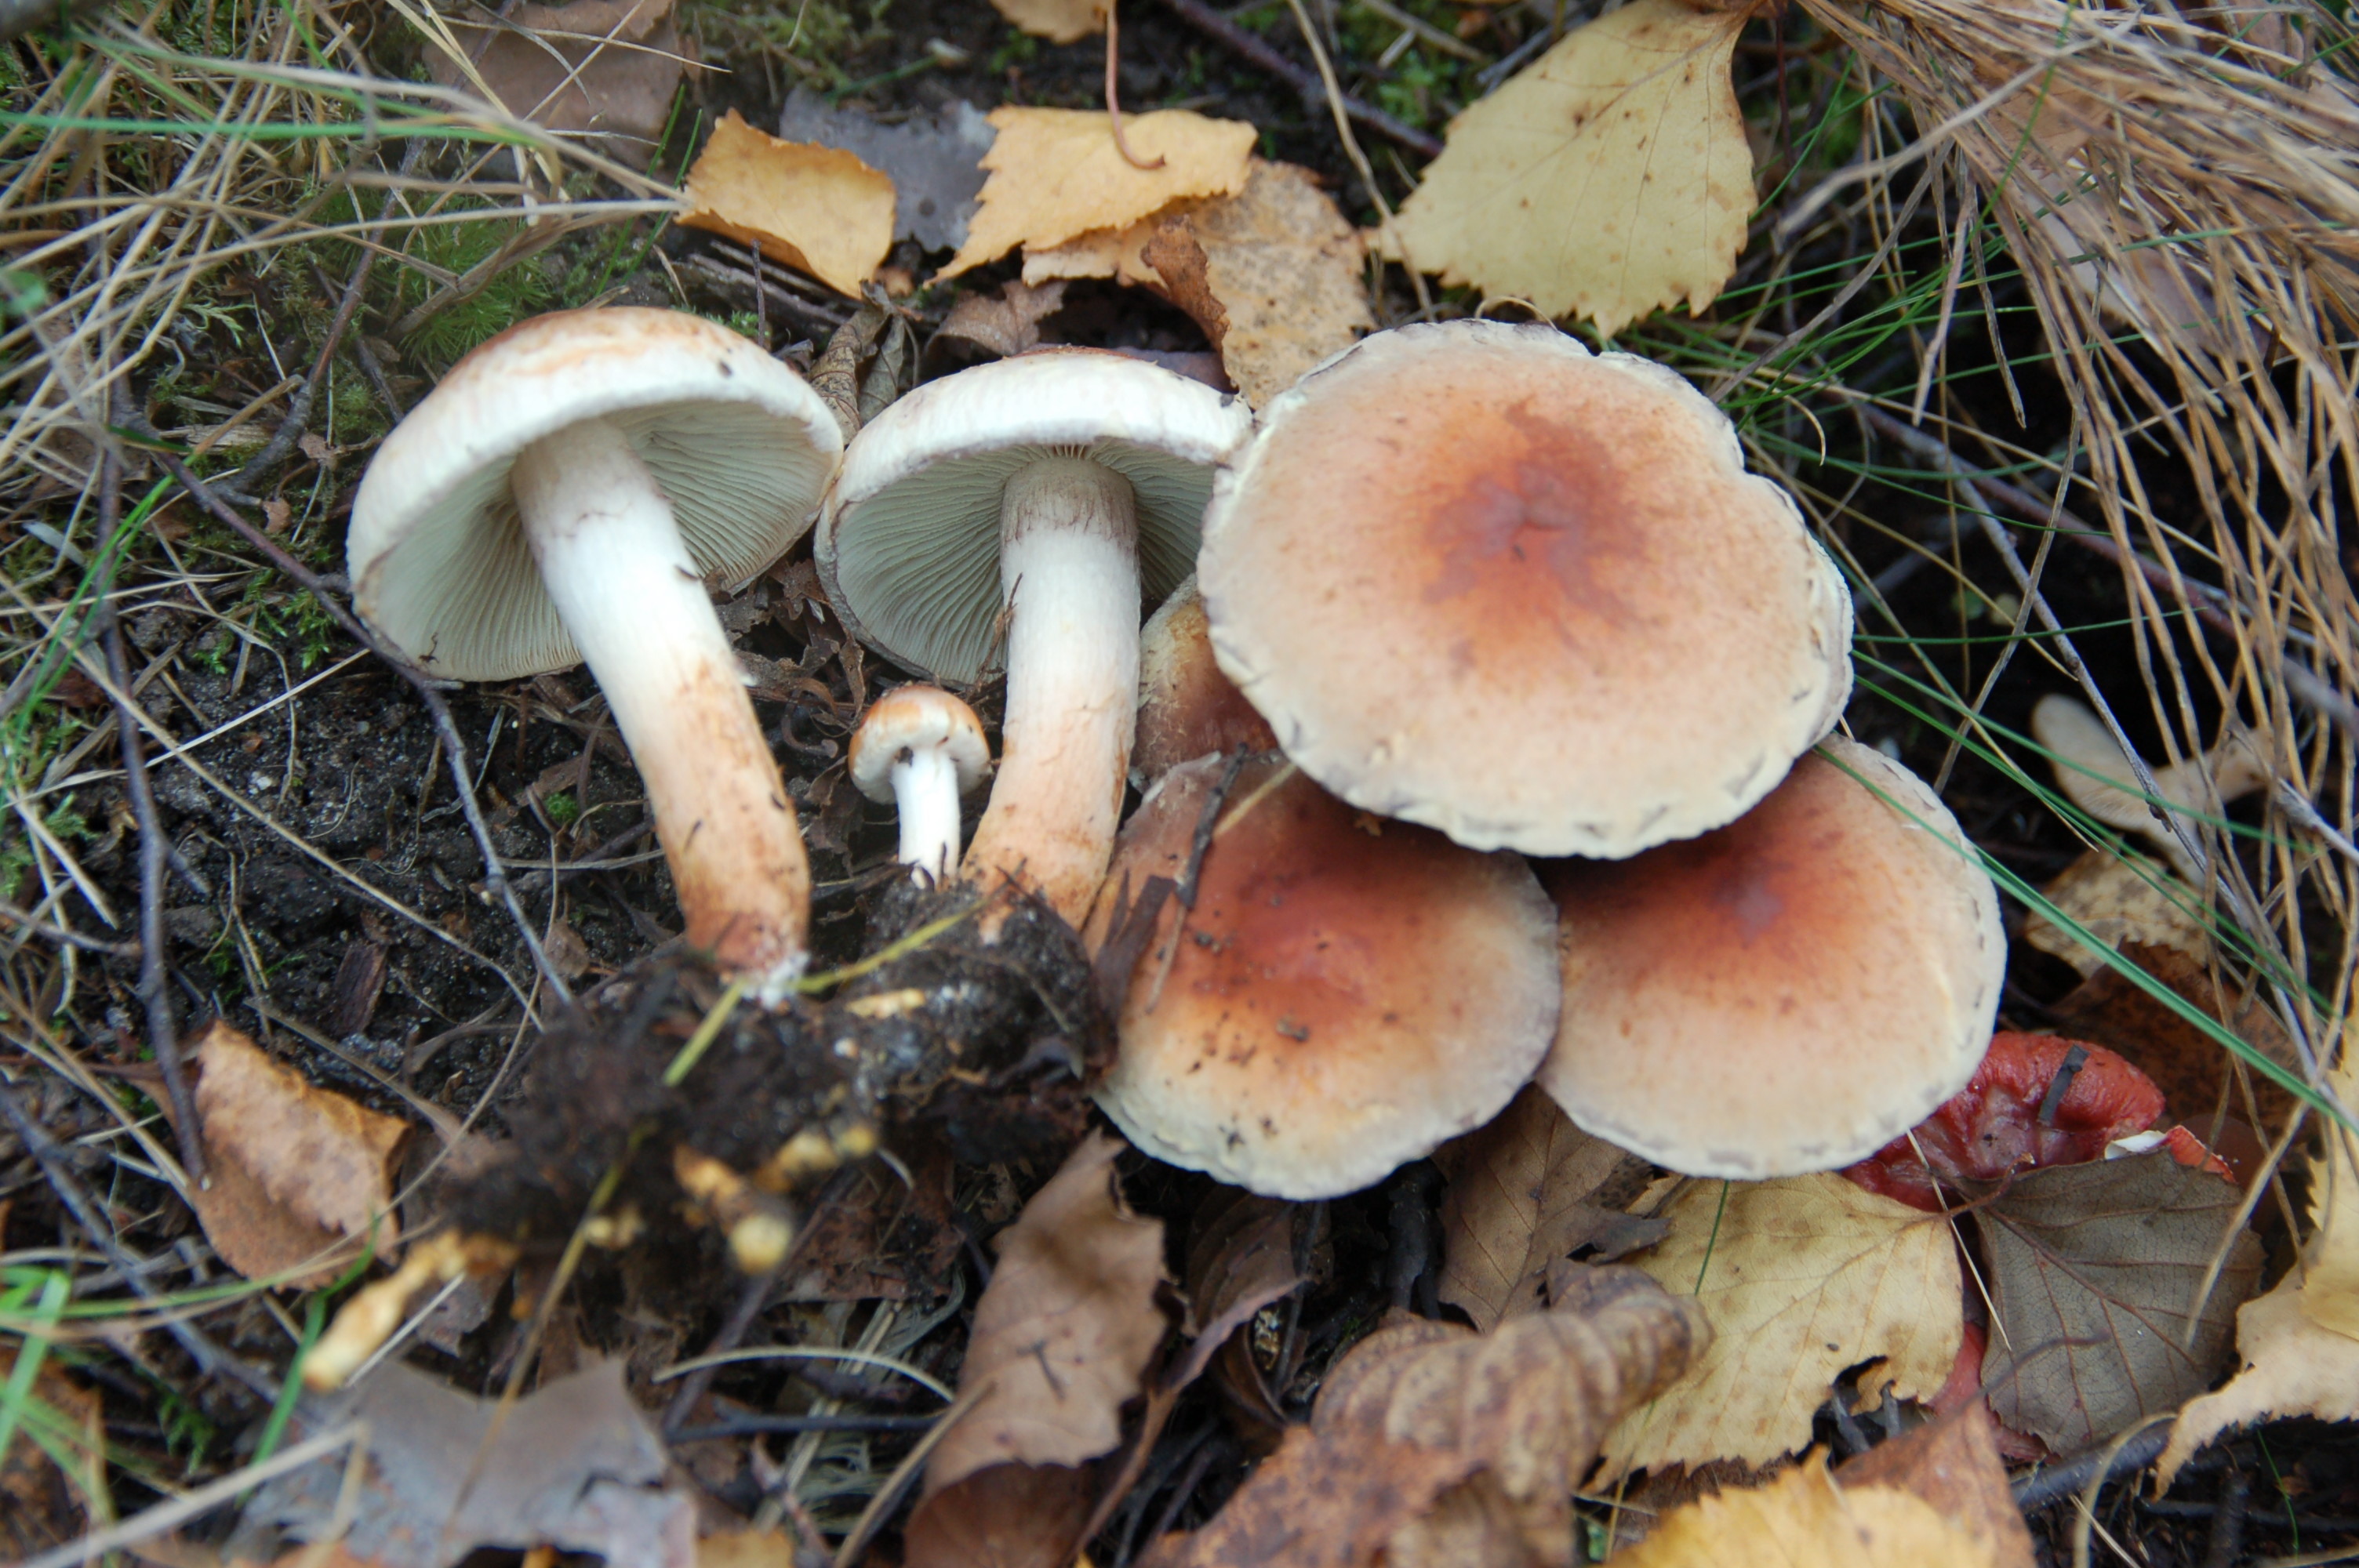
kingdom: Fungi
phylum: Basidiomycota
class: Agaricomycetes
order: Agaricales
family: Strophariaceae
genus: Hypholoma
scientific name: Hypholoma lateritium
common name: Brick caps
